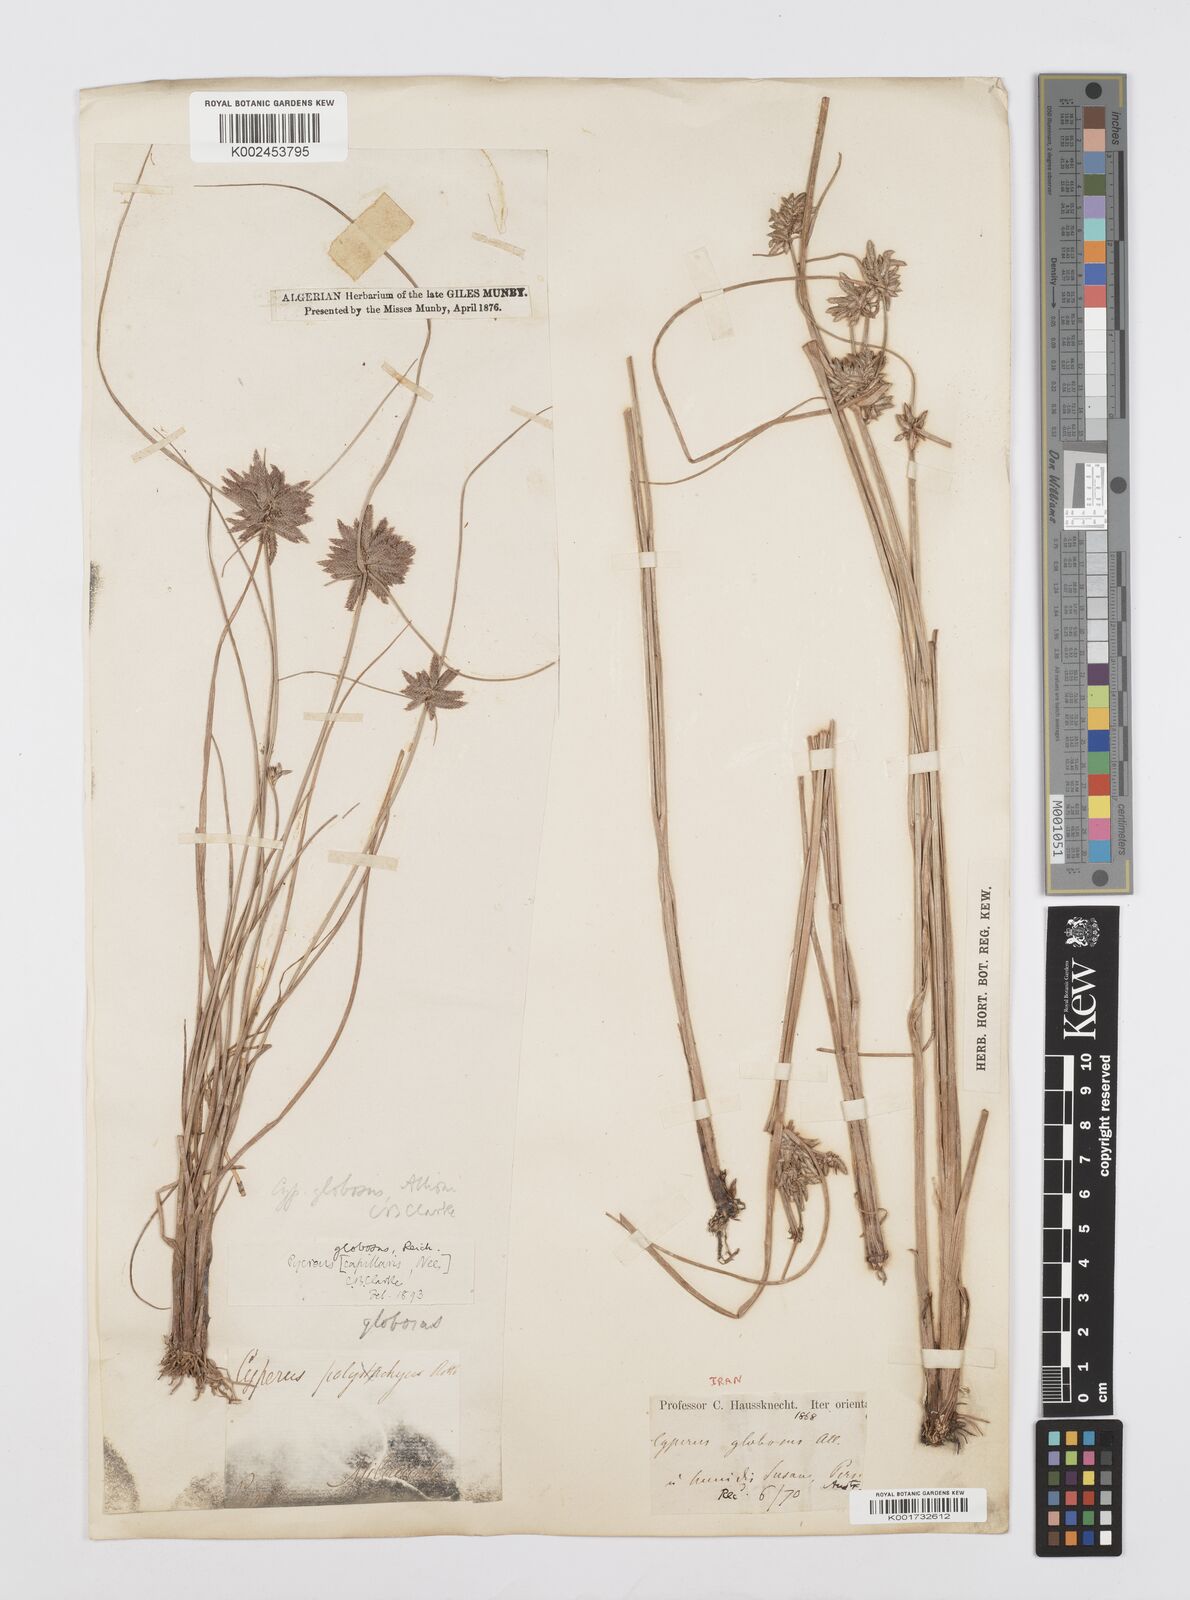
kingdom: Plantae
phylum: Tracheophyta
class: Liliopsida
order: Poales
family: Cyperaceae
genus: Cyperus
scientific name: Cyperus flavidus
